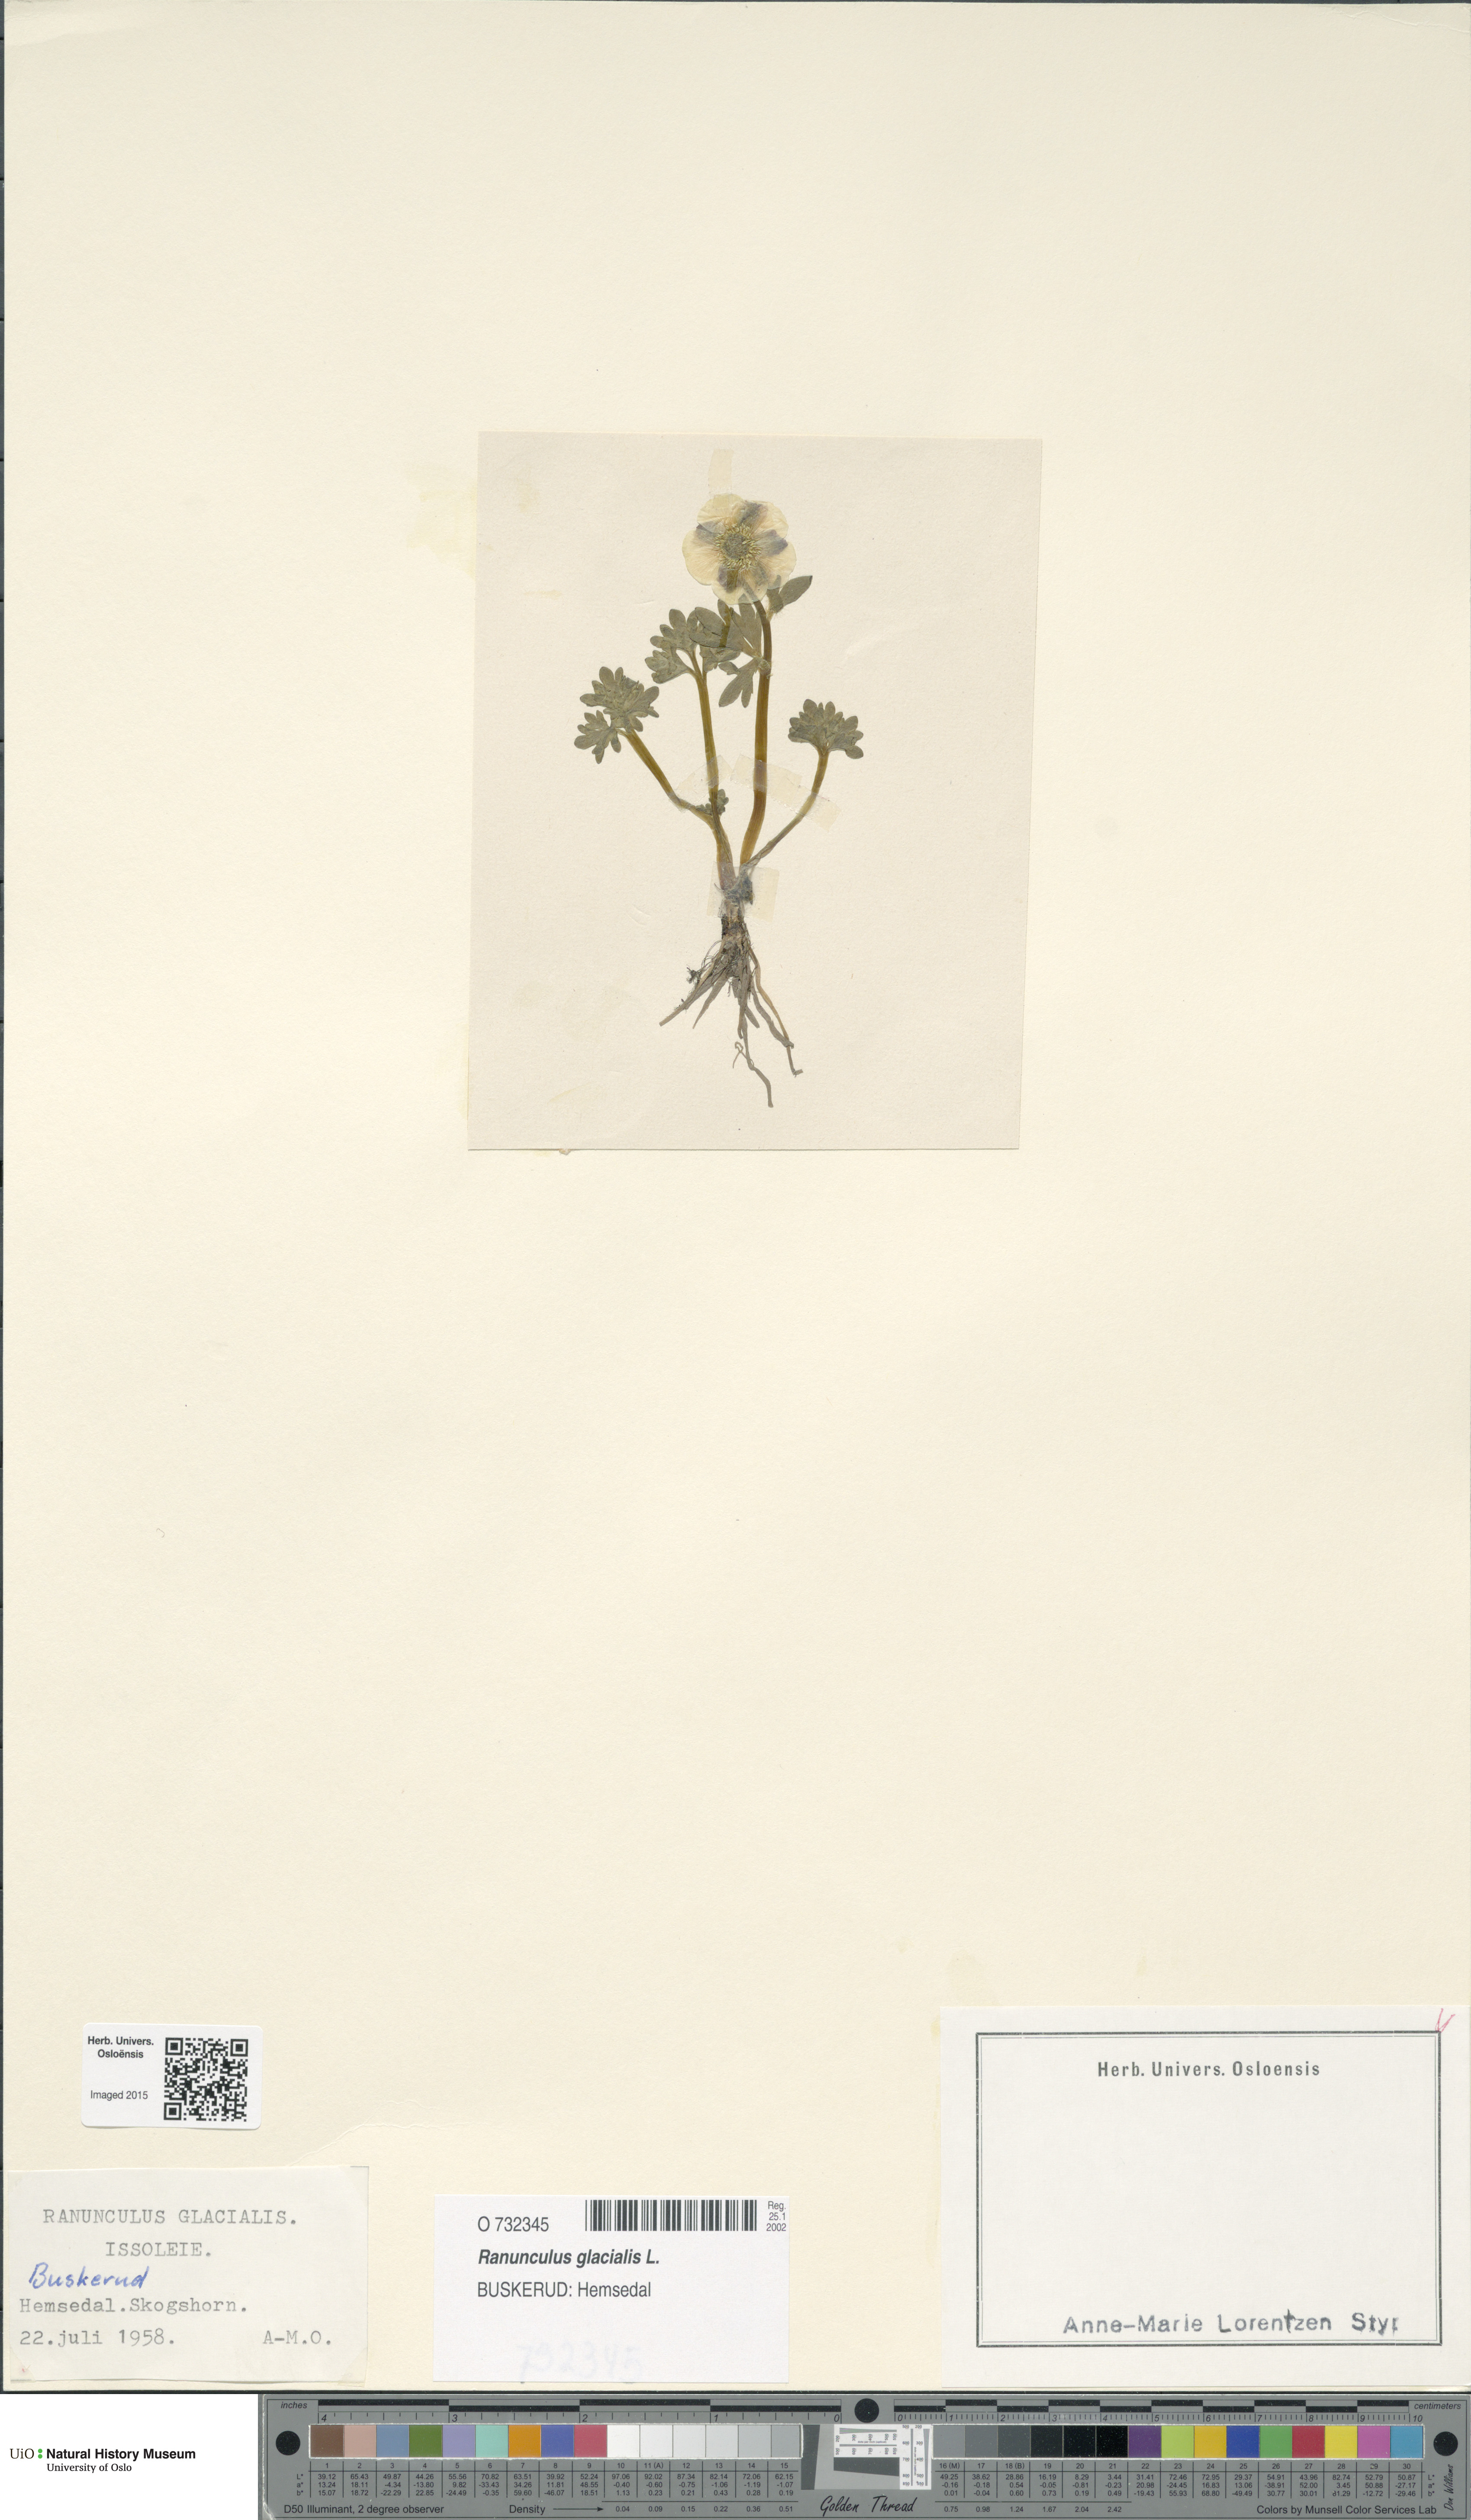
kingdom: Plantae
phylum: Tracheophyta
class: Magnoliopsida
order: Ranunculales
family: Ranunculaceae
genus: Ranunculus
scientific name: Ranunculus glacialis
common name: Glacier buttercup
